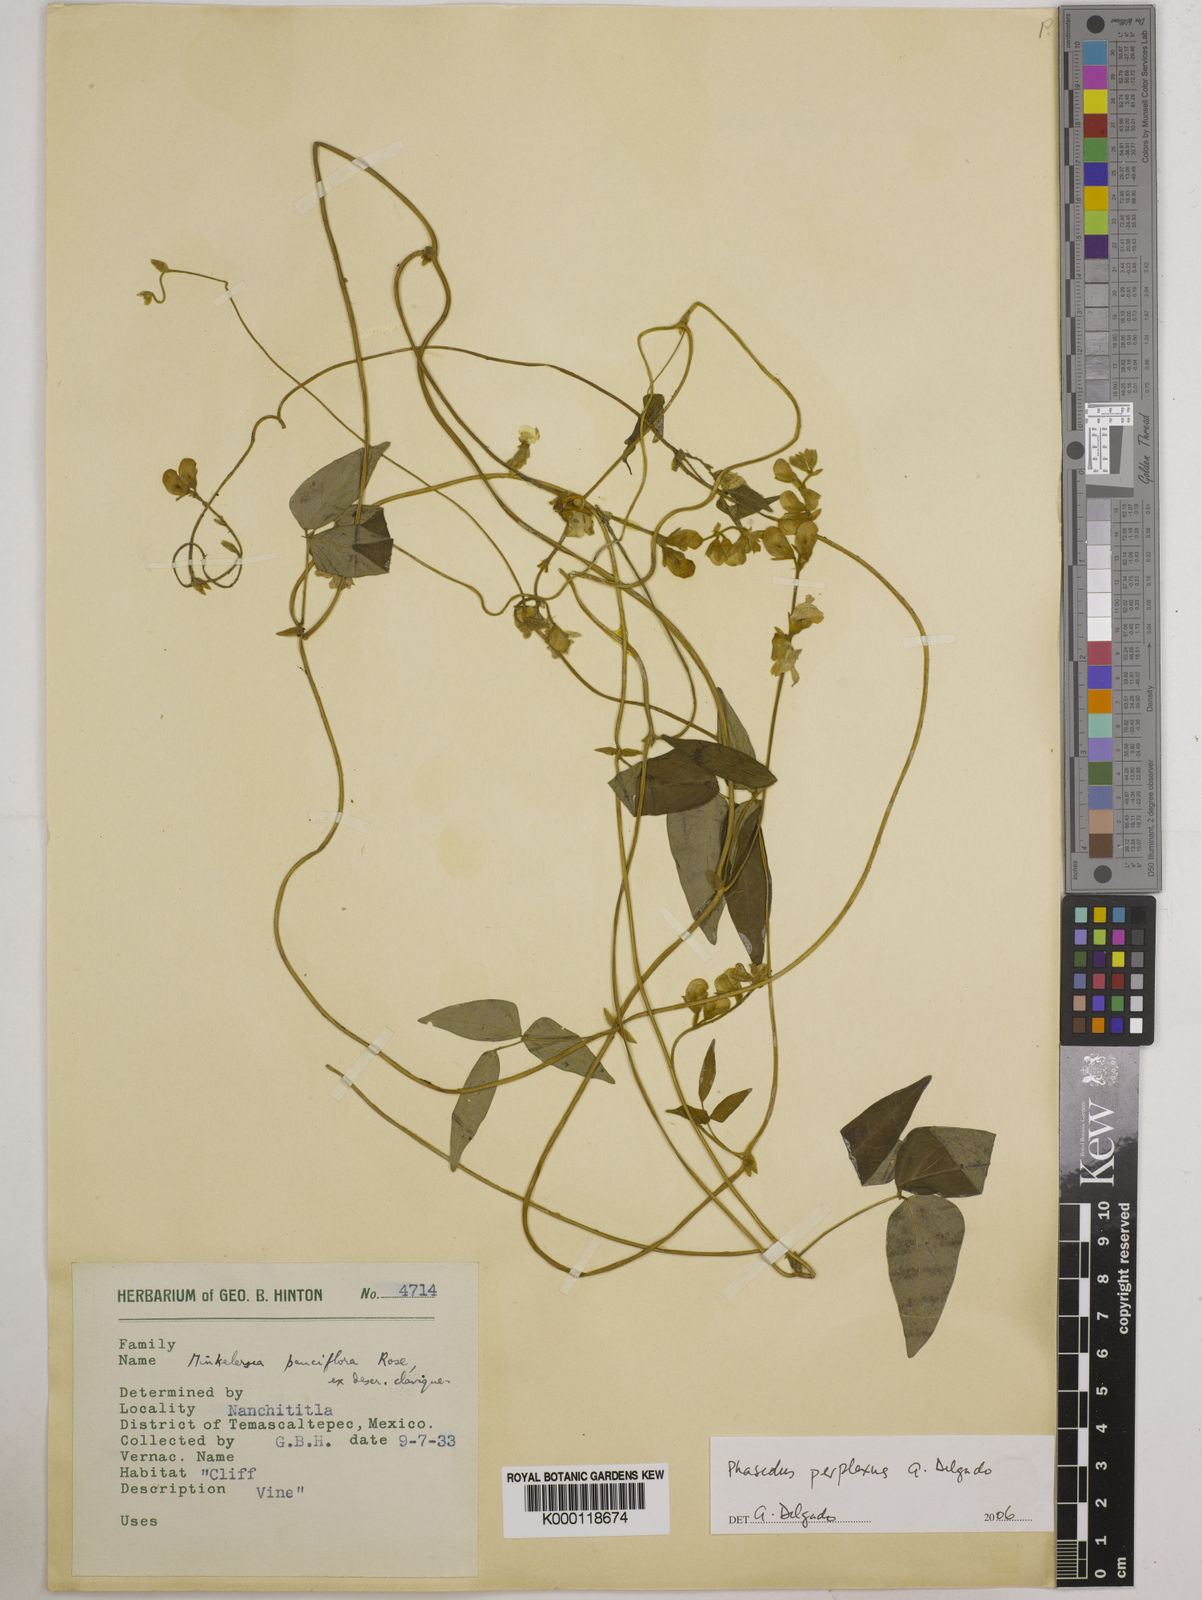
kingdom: Plantae
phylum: Tracheophyta
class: Magnoliopsida
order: Fabales
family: Fabaceae
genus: Phaseolus
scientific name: Phaseolus perplexus
